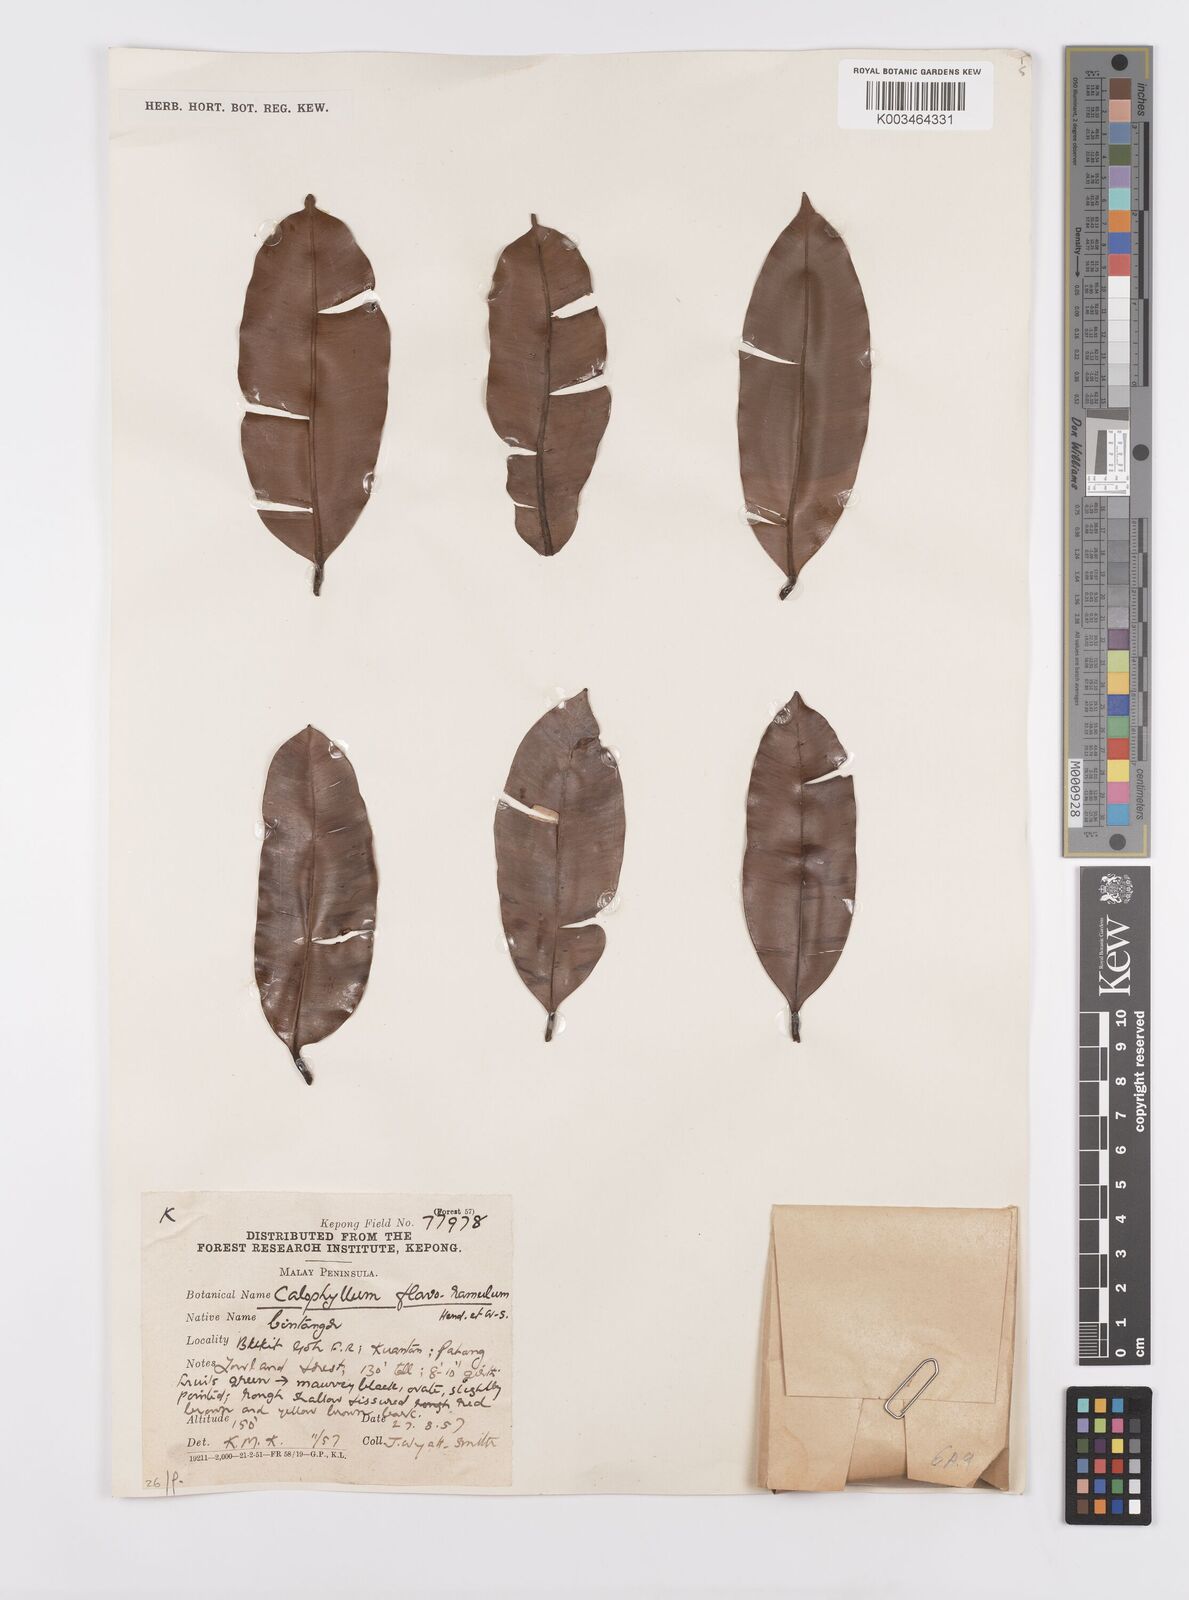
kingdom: Plantae
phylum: Tracheophyta
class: Magnoliopsida
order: Malpighiales
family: Calophyllaceae
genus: Calophyllum
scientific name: Calophyllum flavoramulum
